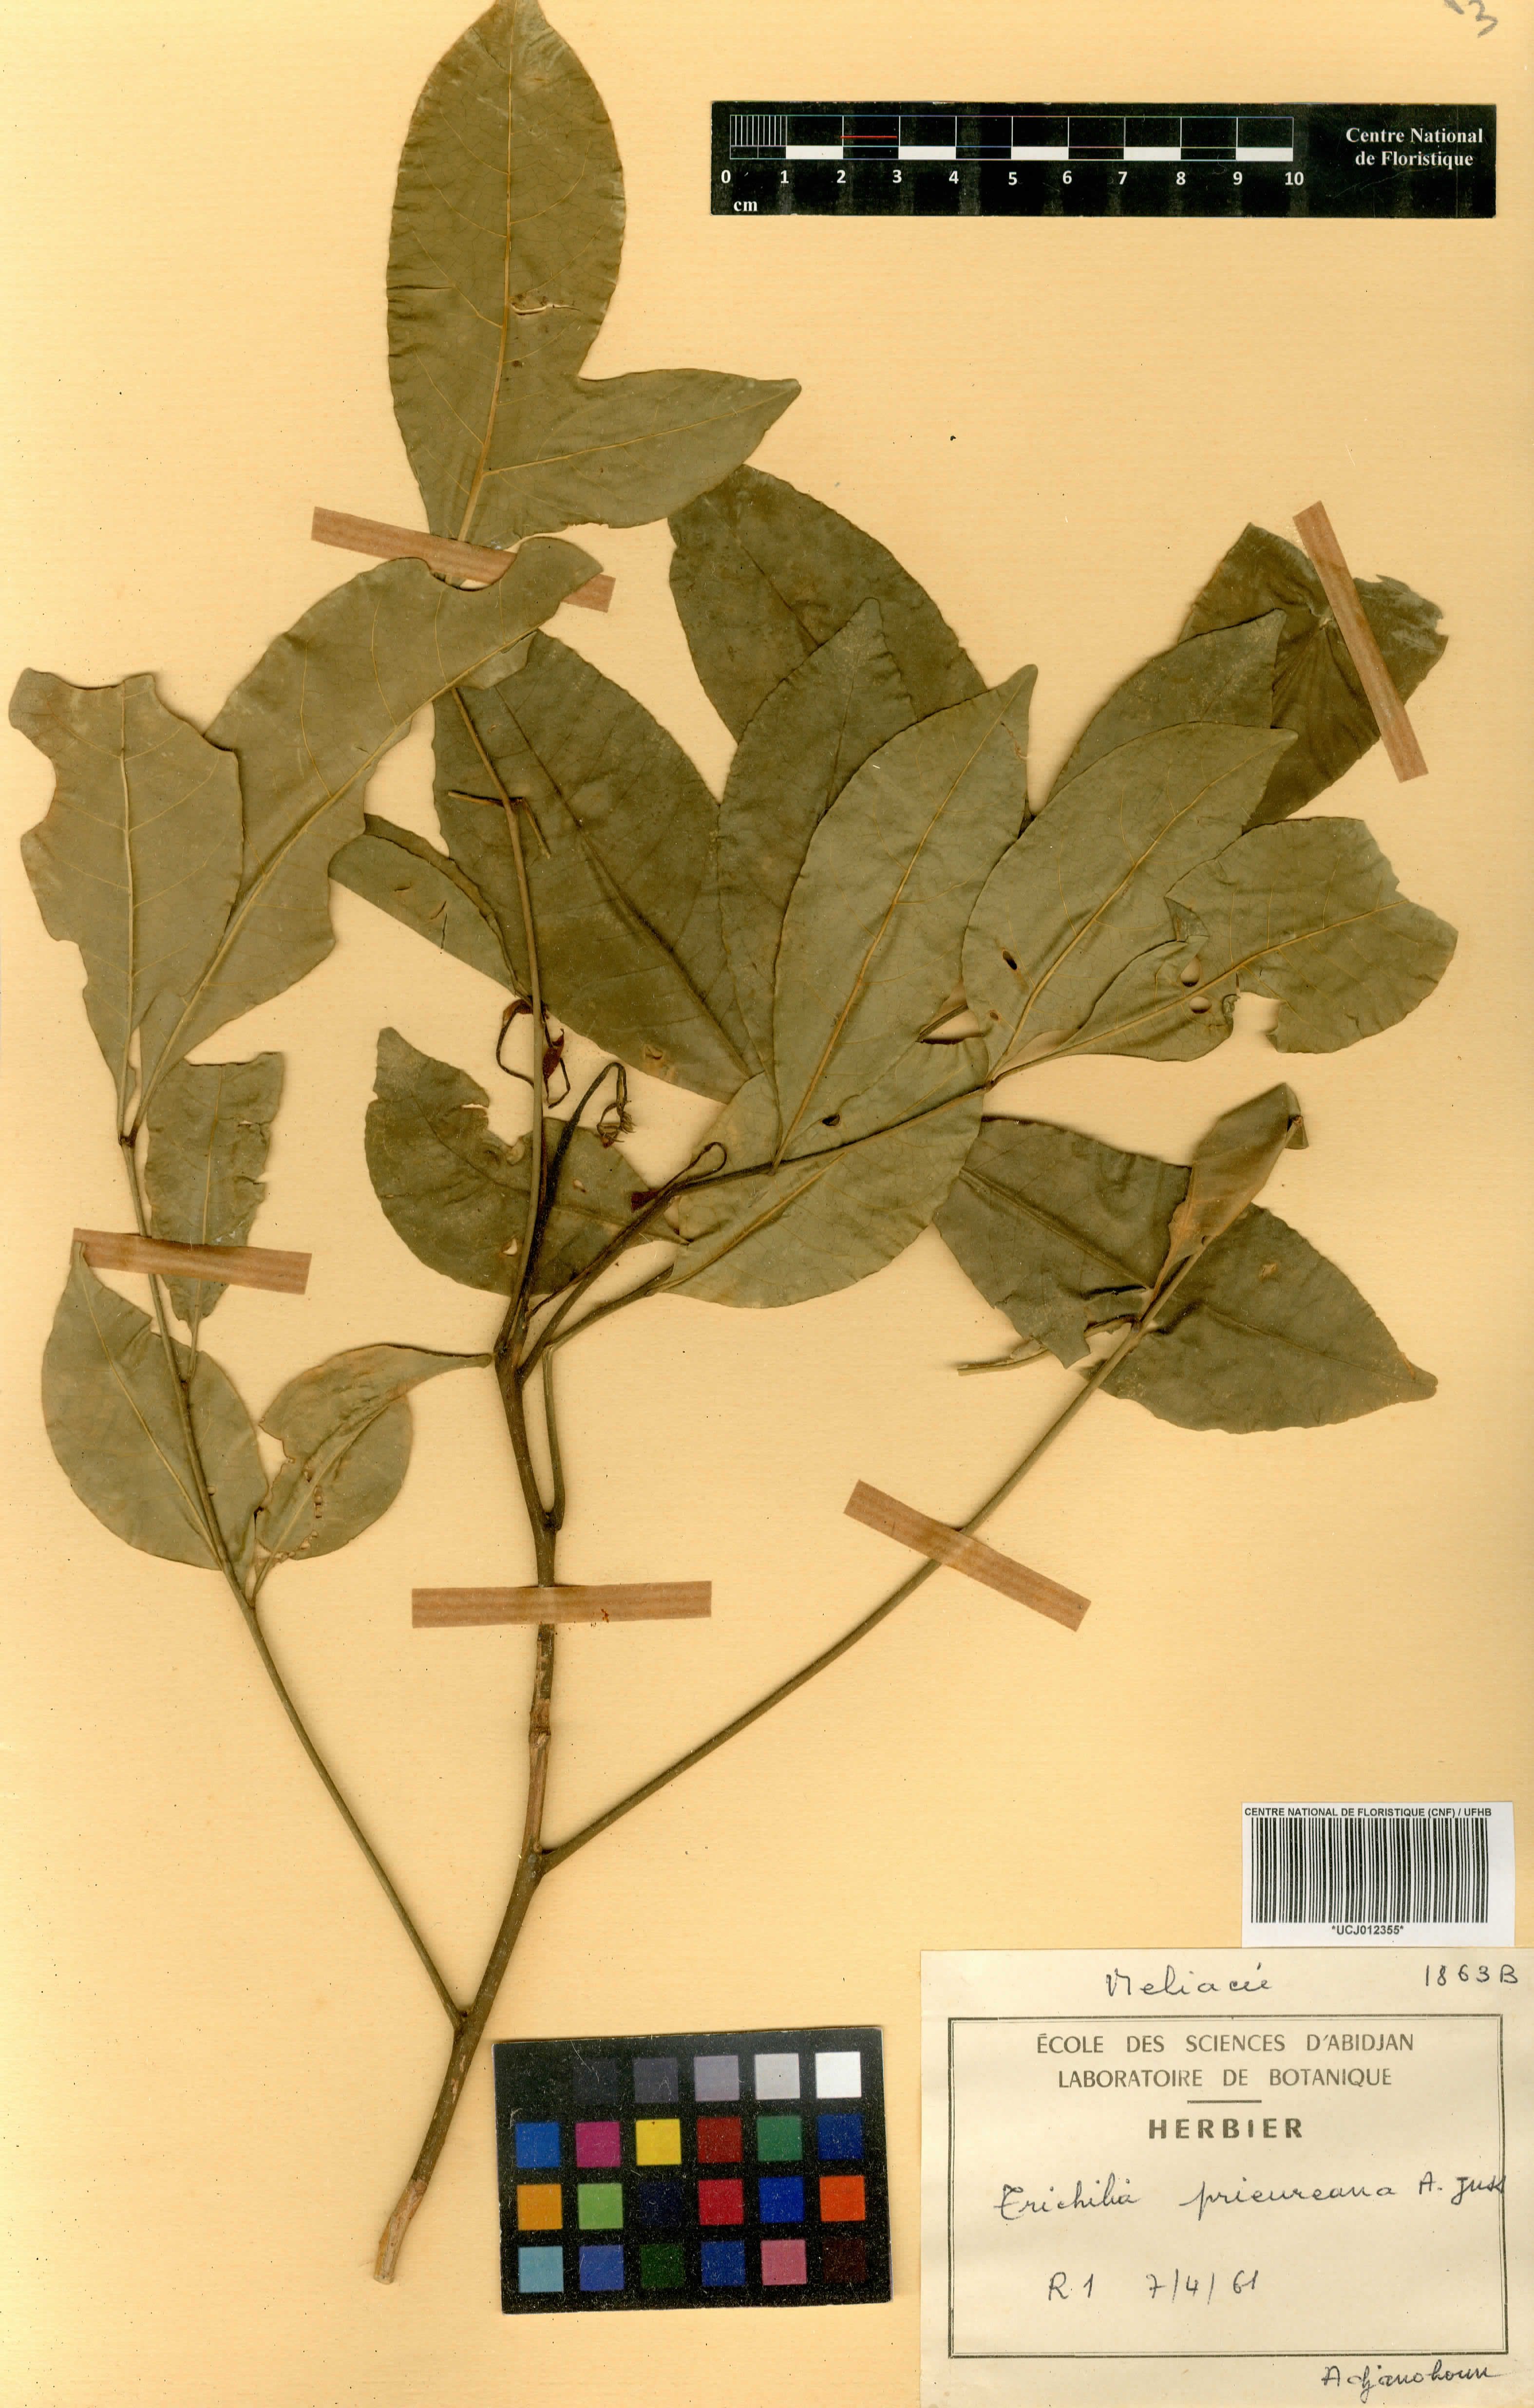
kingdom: Plantae
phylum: Tracheophyta
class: Magnoliopsida
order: Sapindales
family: Meliaceae
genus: Trichilia
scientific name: Trichilia prieureana
